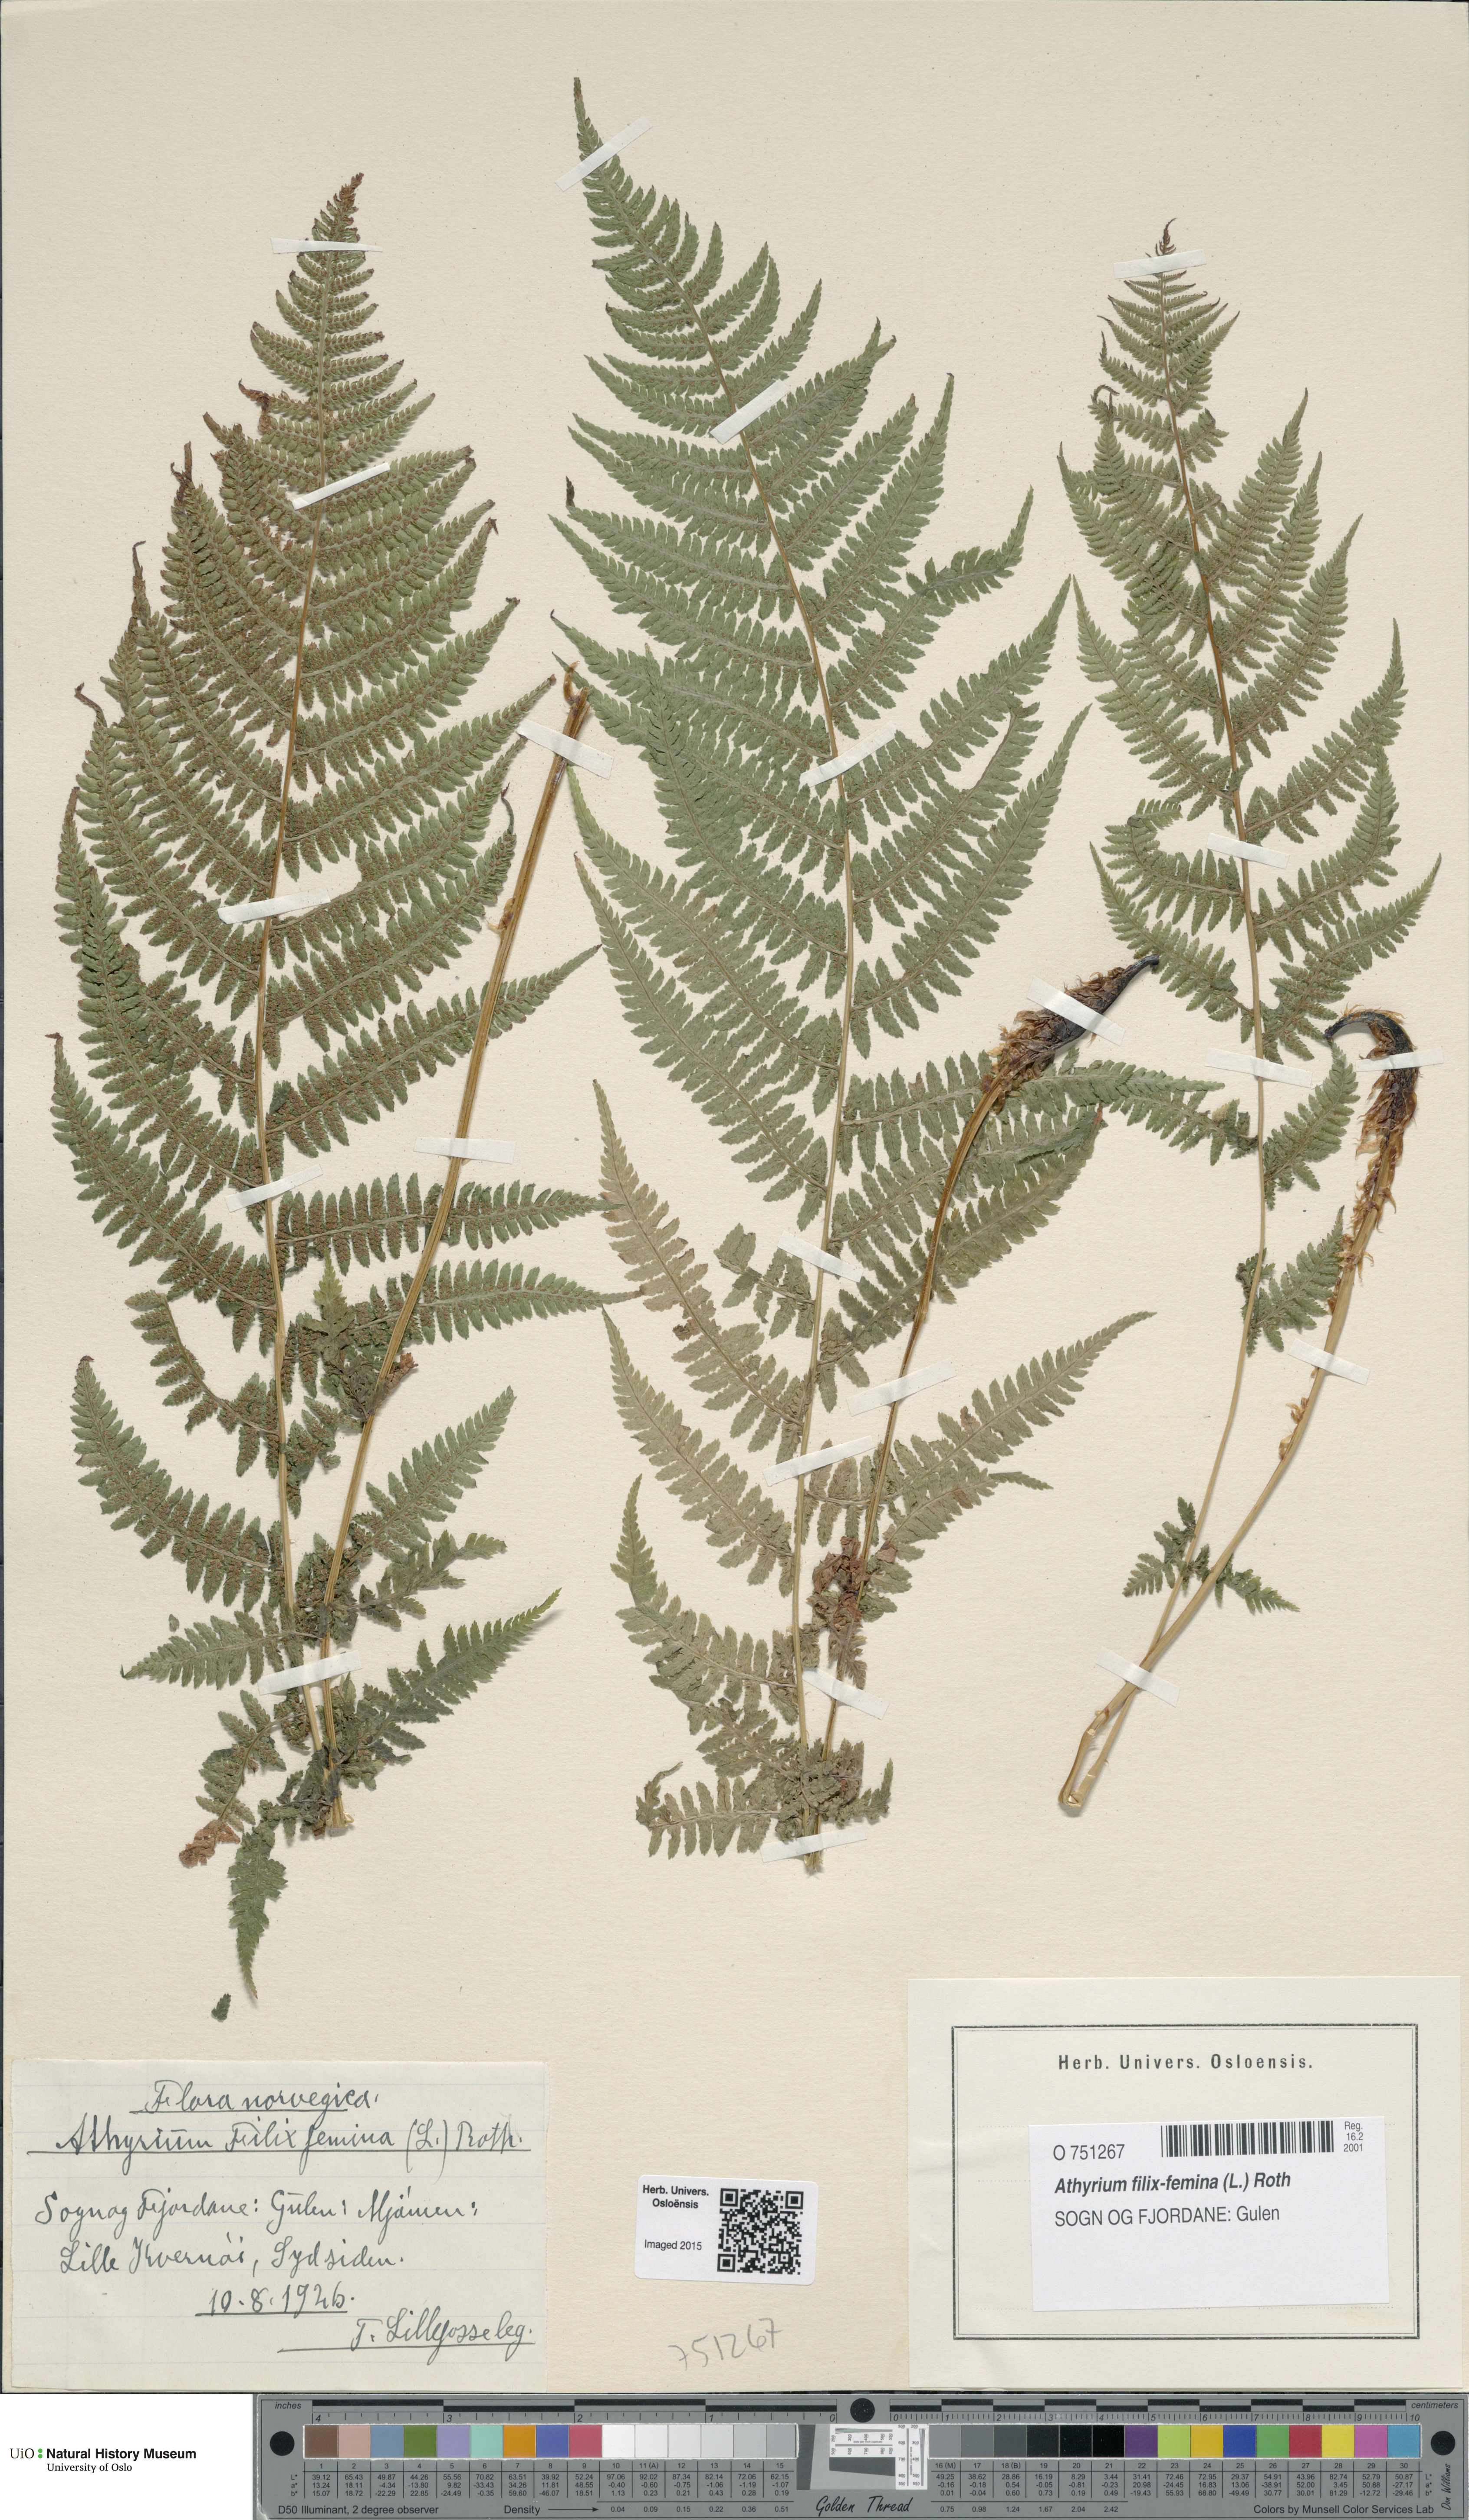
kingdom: Plantae
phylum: Tracheophyta
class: Polypodiopsida
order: Polypodiales
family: Athyriaceae
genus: Athyrium
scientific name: Athyrium filix-femina
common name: Lady fern
